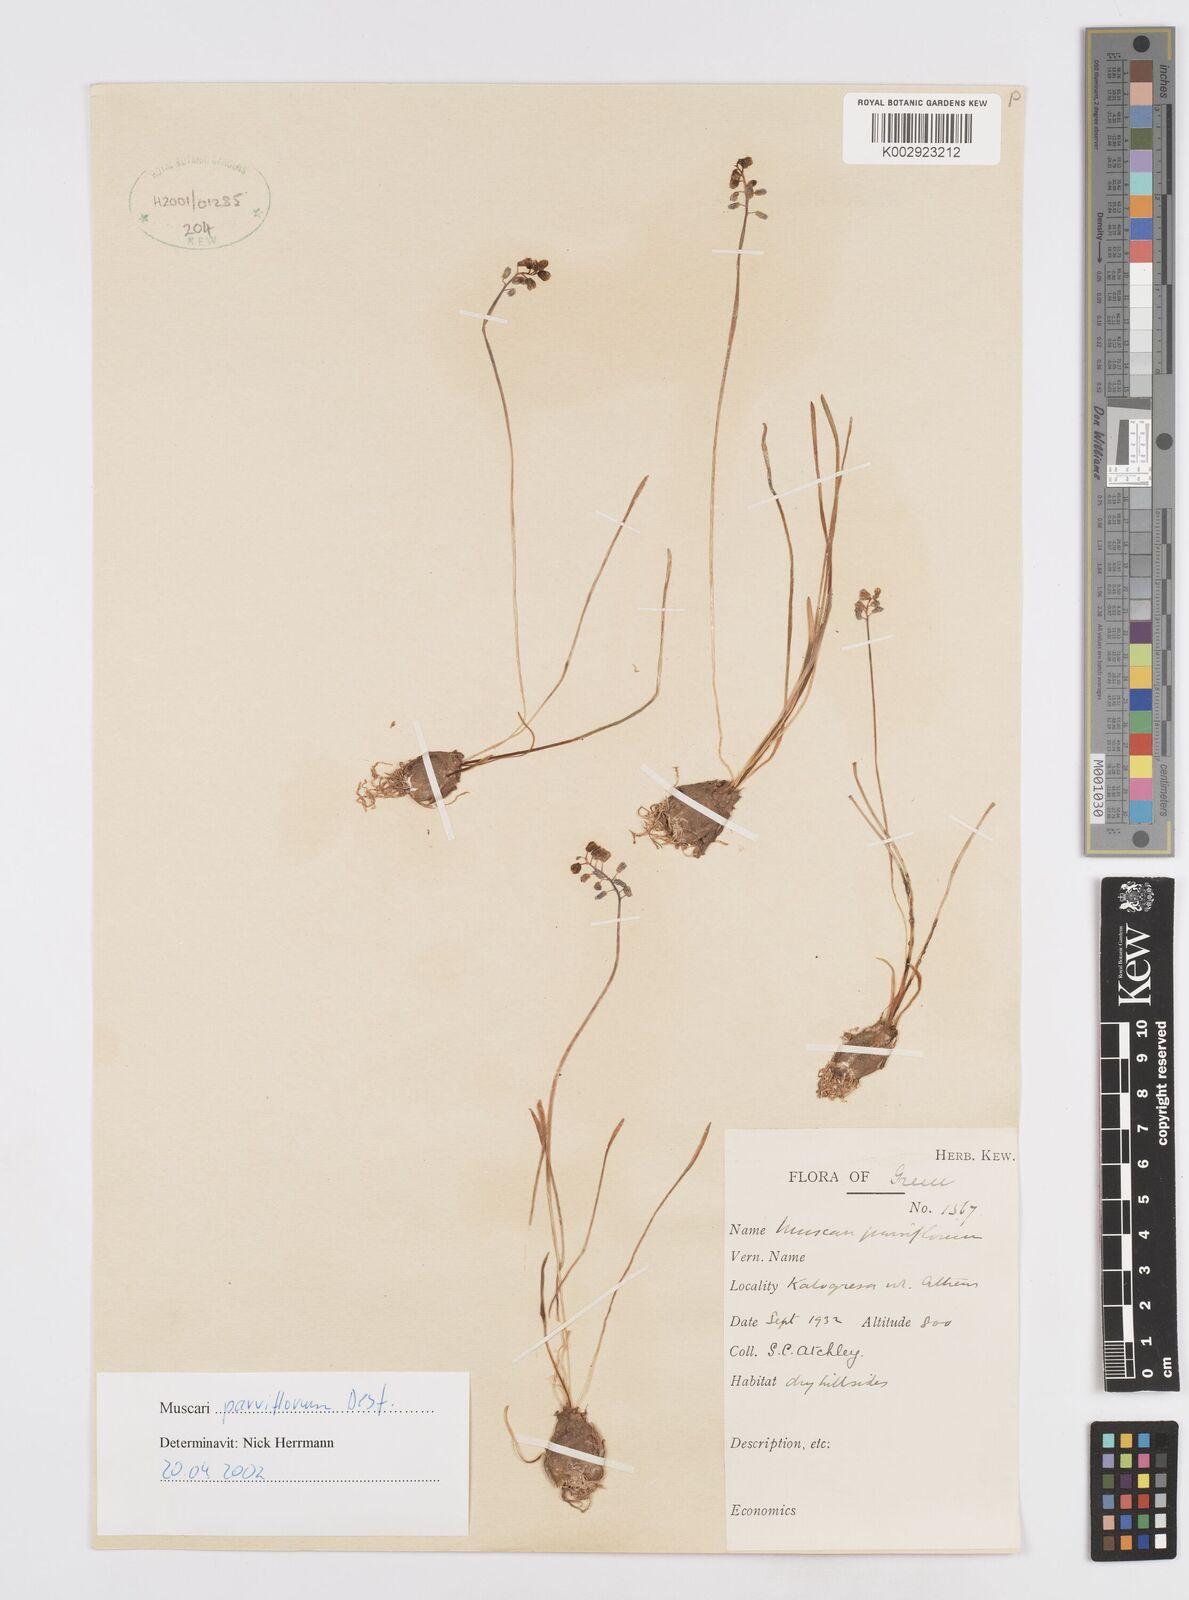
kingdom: Plantae
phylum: Tracheophyta
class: Liliopsida
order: Asparagales
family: Asparagaceae
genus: Muscari
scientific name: Muscari parviflorum
